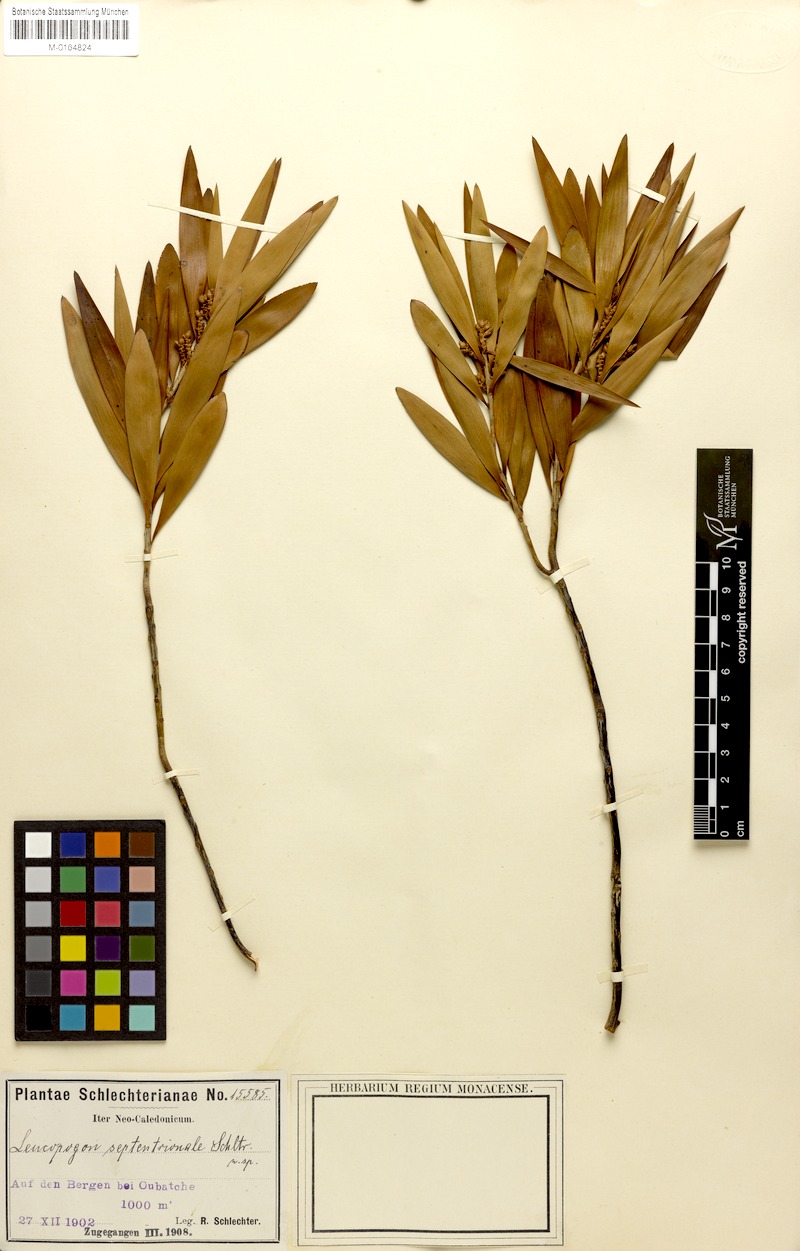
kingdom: Plantae
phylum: Tracheophyta
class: Magnoliopsida
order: Ericales
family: Ericaceae
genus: Styphelia
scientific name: Styphelia cymbulae
